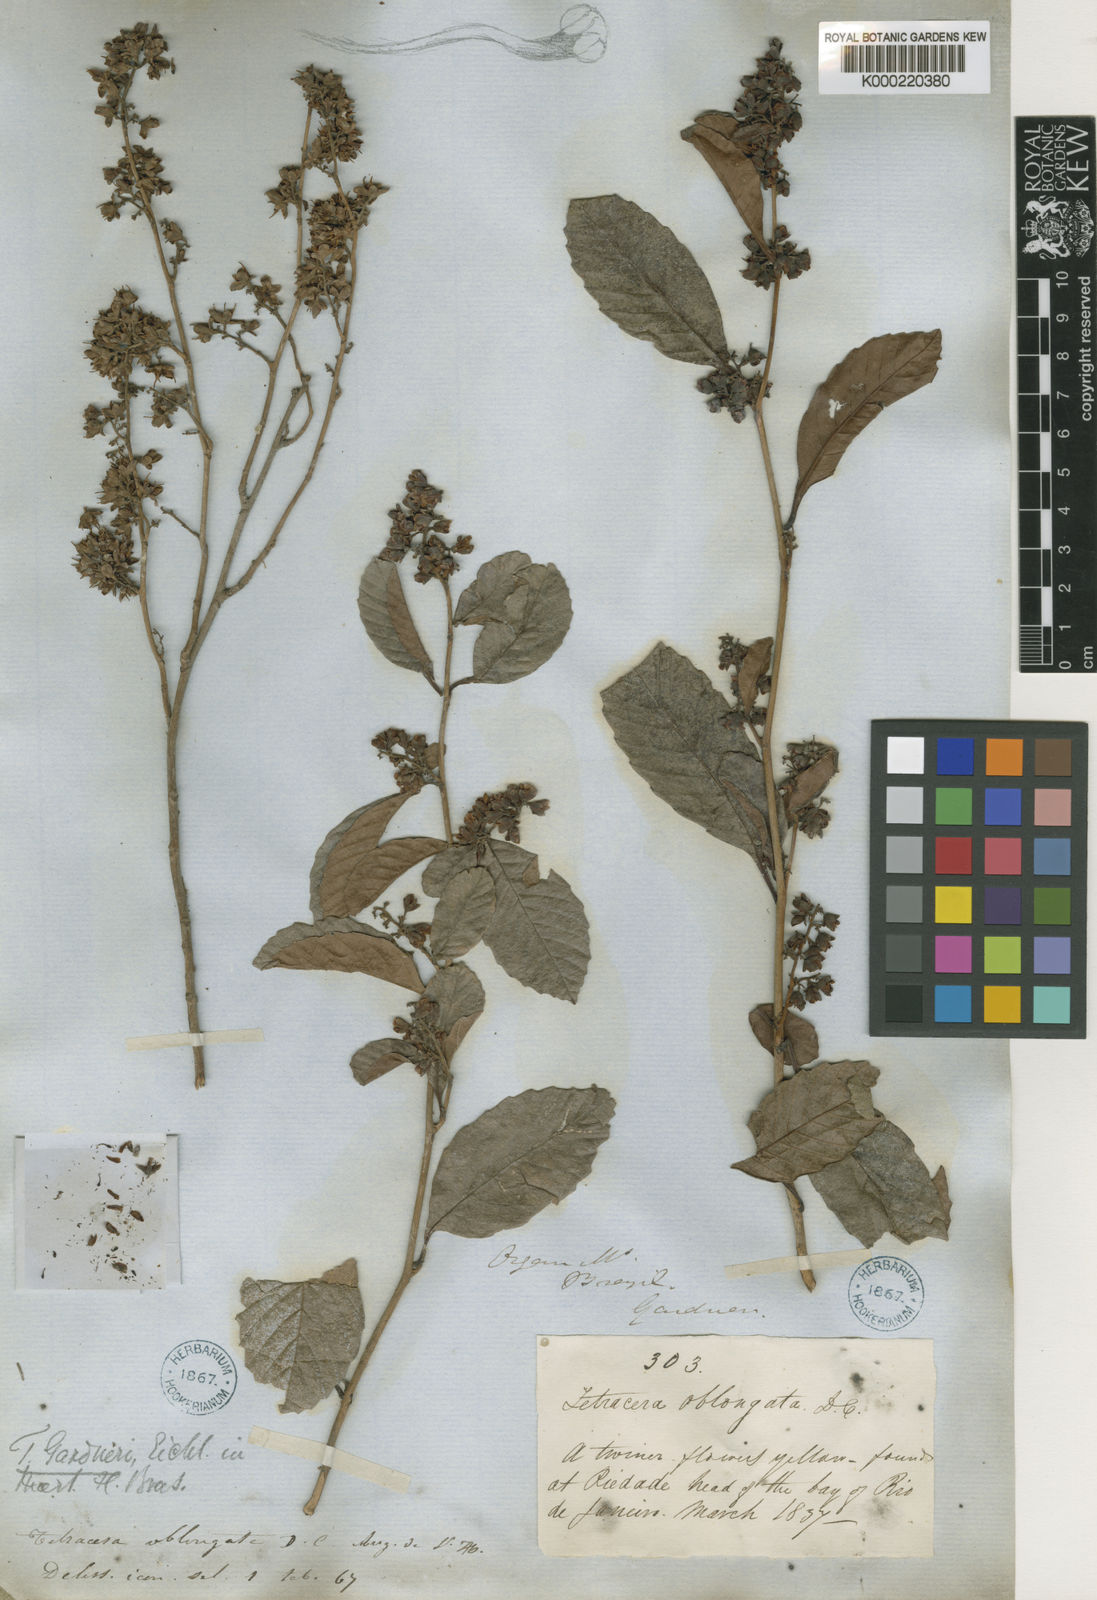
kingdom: Plantae
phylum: Tracheophyta
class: Magnoliopsida
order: Dilleniales
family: Dilleniaceae
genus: Tetracera
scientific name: Tetracera oblongata
